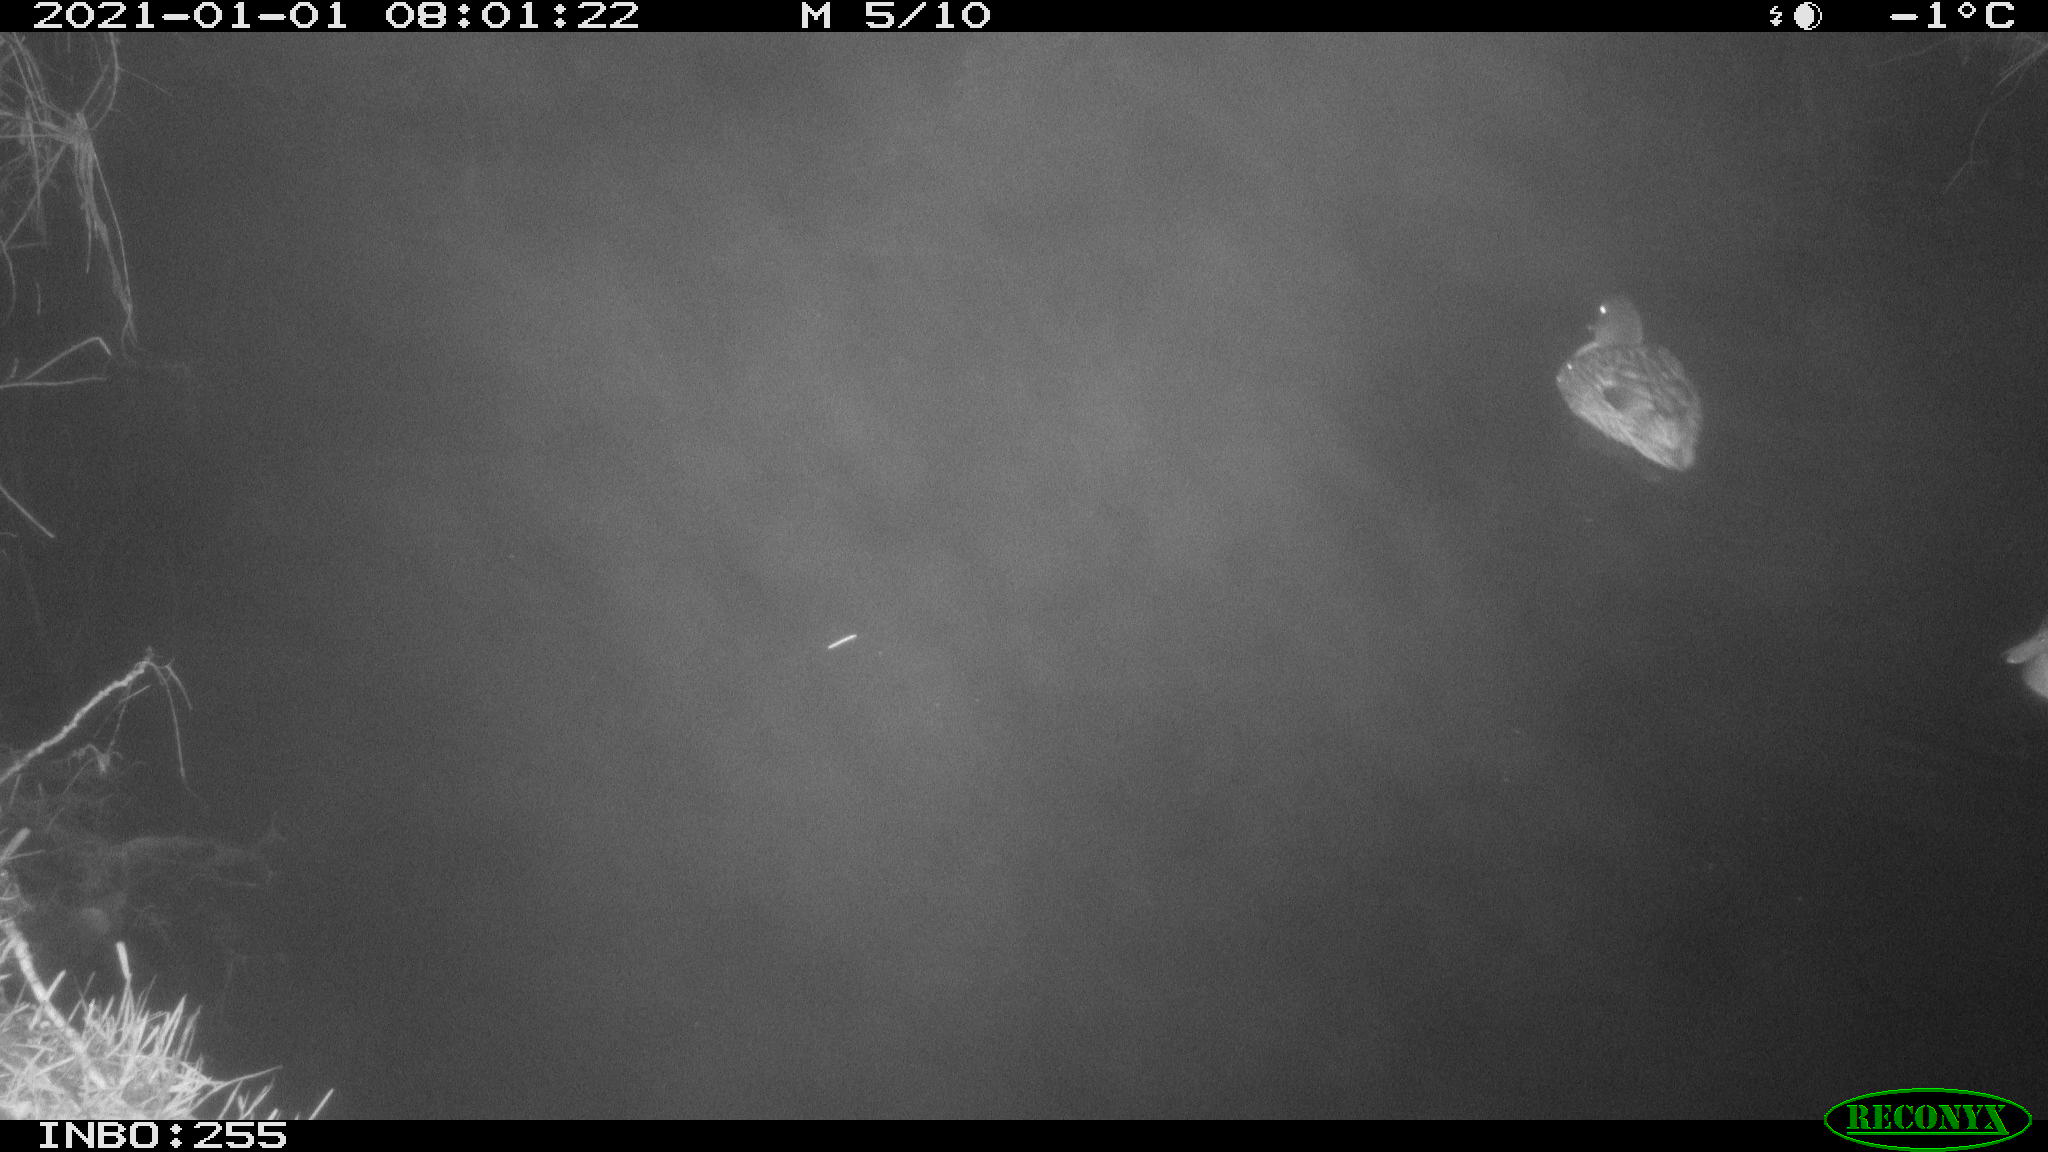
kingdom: Animalia
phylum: Chordata
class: Aves
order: Anseriformes
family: Anatidae
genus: Anas
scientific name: Anas platyrhynchos
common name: Mallard
